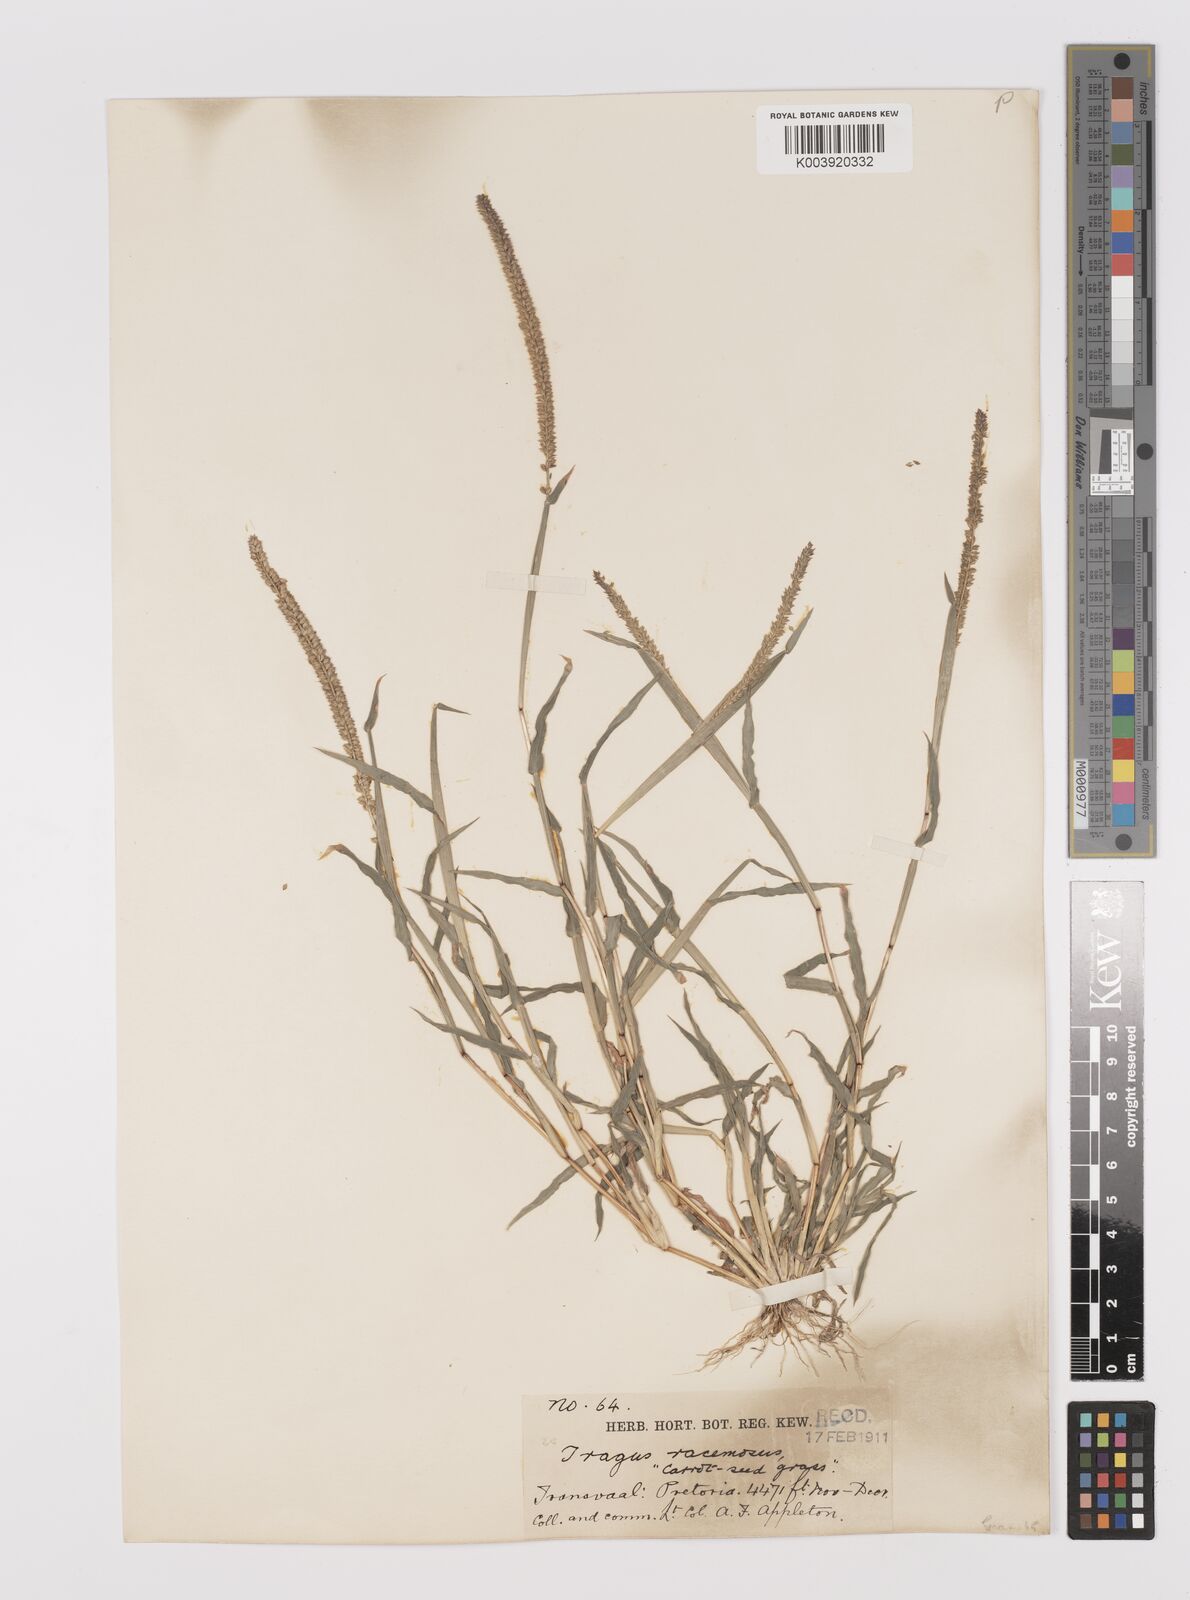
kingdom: Plantae
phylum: Tracheophyta
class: Liliopsida
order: Poales
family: Poaceae
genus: Tragus
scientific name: Tragus berteronianus
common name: African bur-grass
